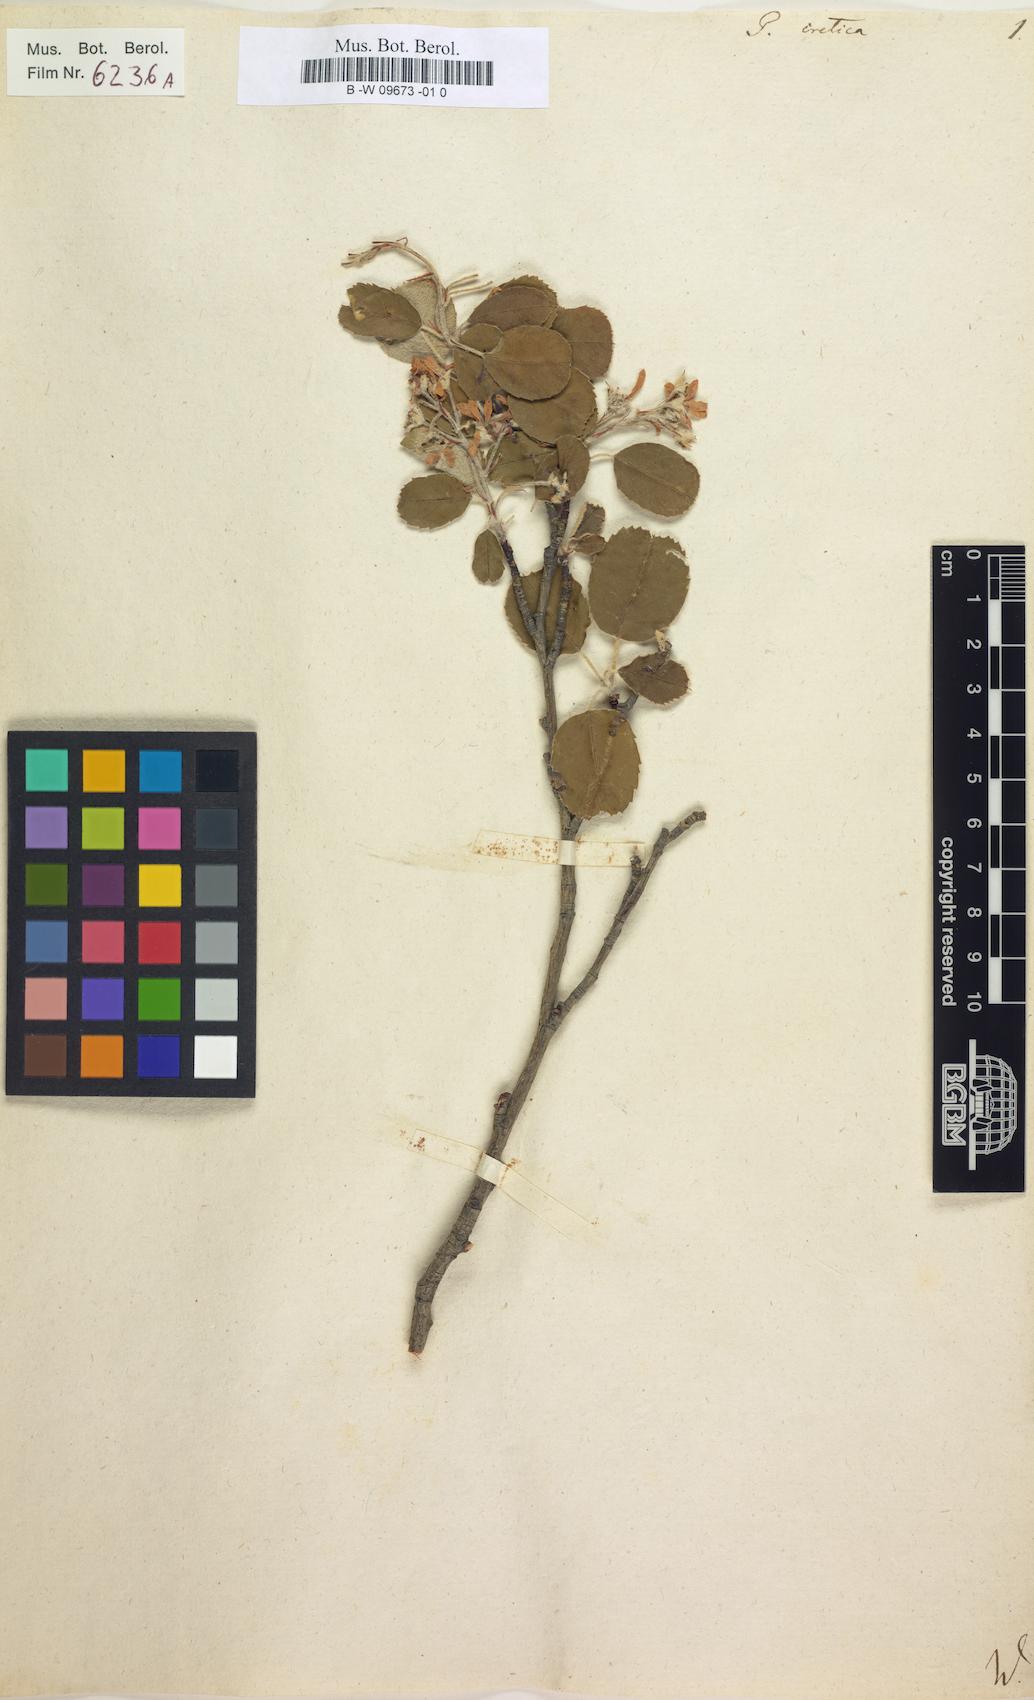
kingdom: Plantae
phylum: Tracheophyta
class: Magnoliopsida
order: Rosales
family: Rosaceae
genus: Amelanchier
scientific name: Amelanchier ovalis
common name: Serviceberry
